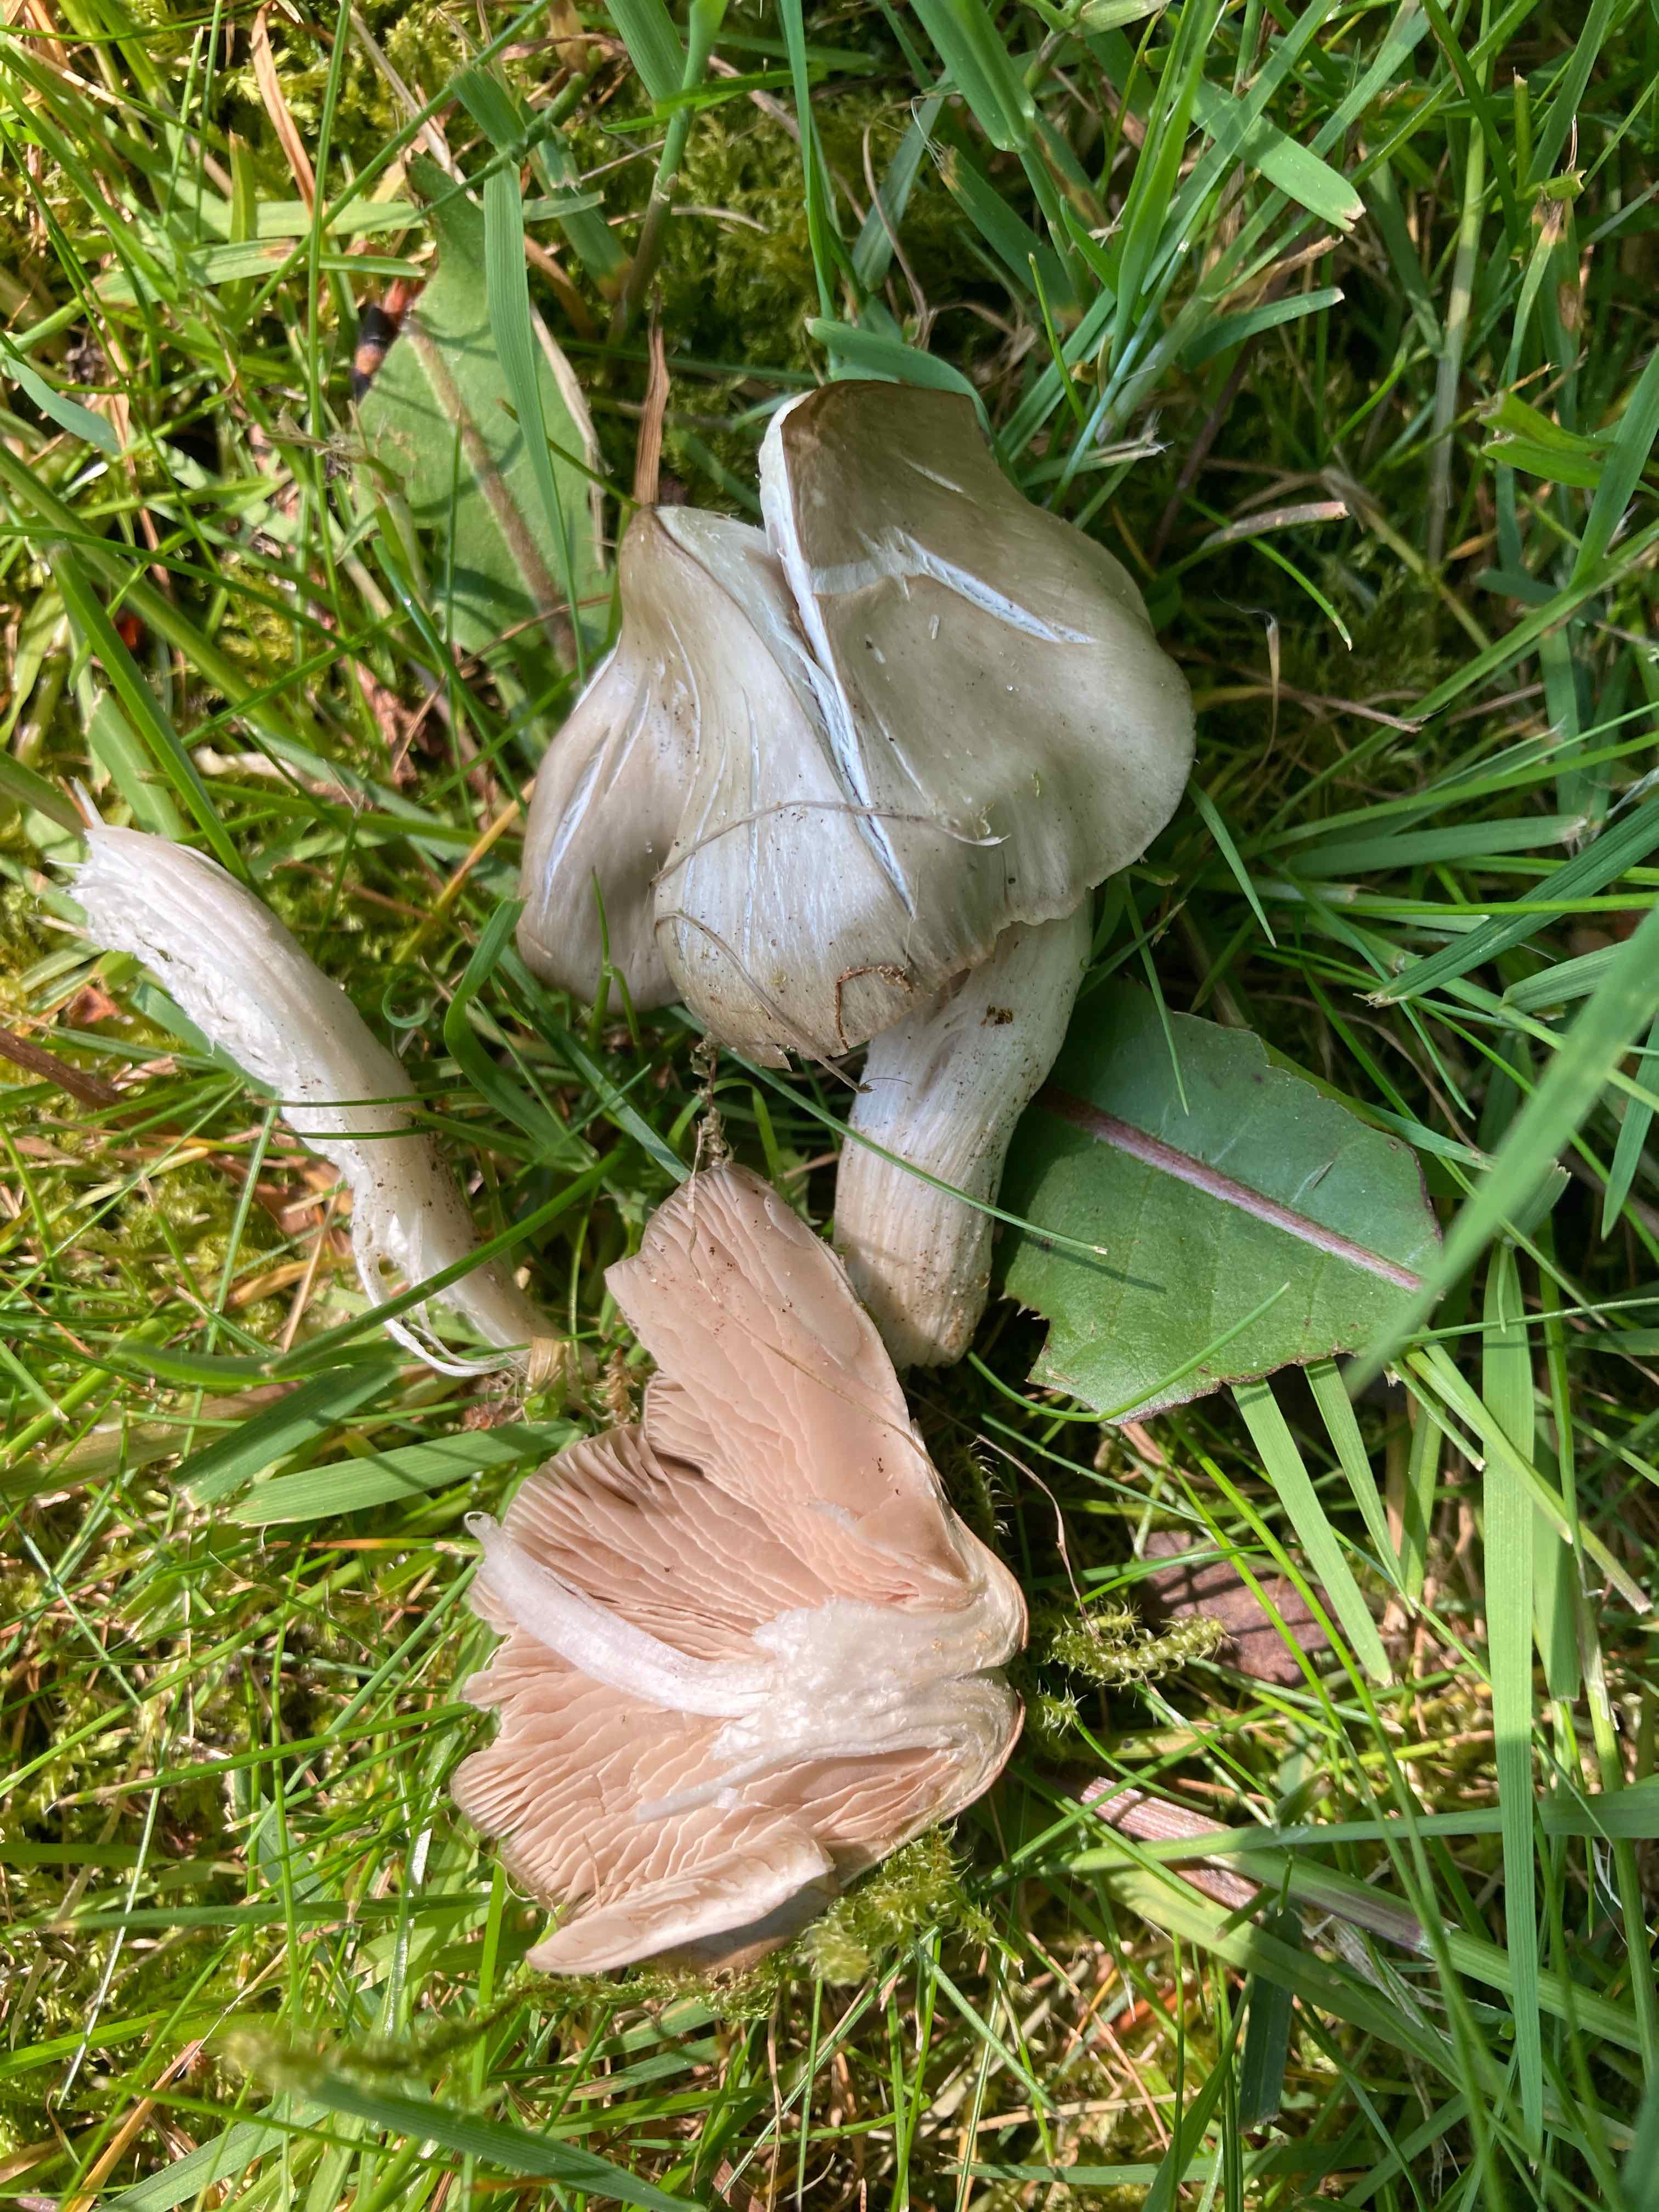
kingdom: Fungi
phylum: Basidiomycota
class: Agaricomycetes
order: Agaricales
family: Entolomataceae
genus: Entoloma
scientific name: Entoloma aprile
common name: maj-rødblad
